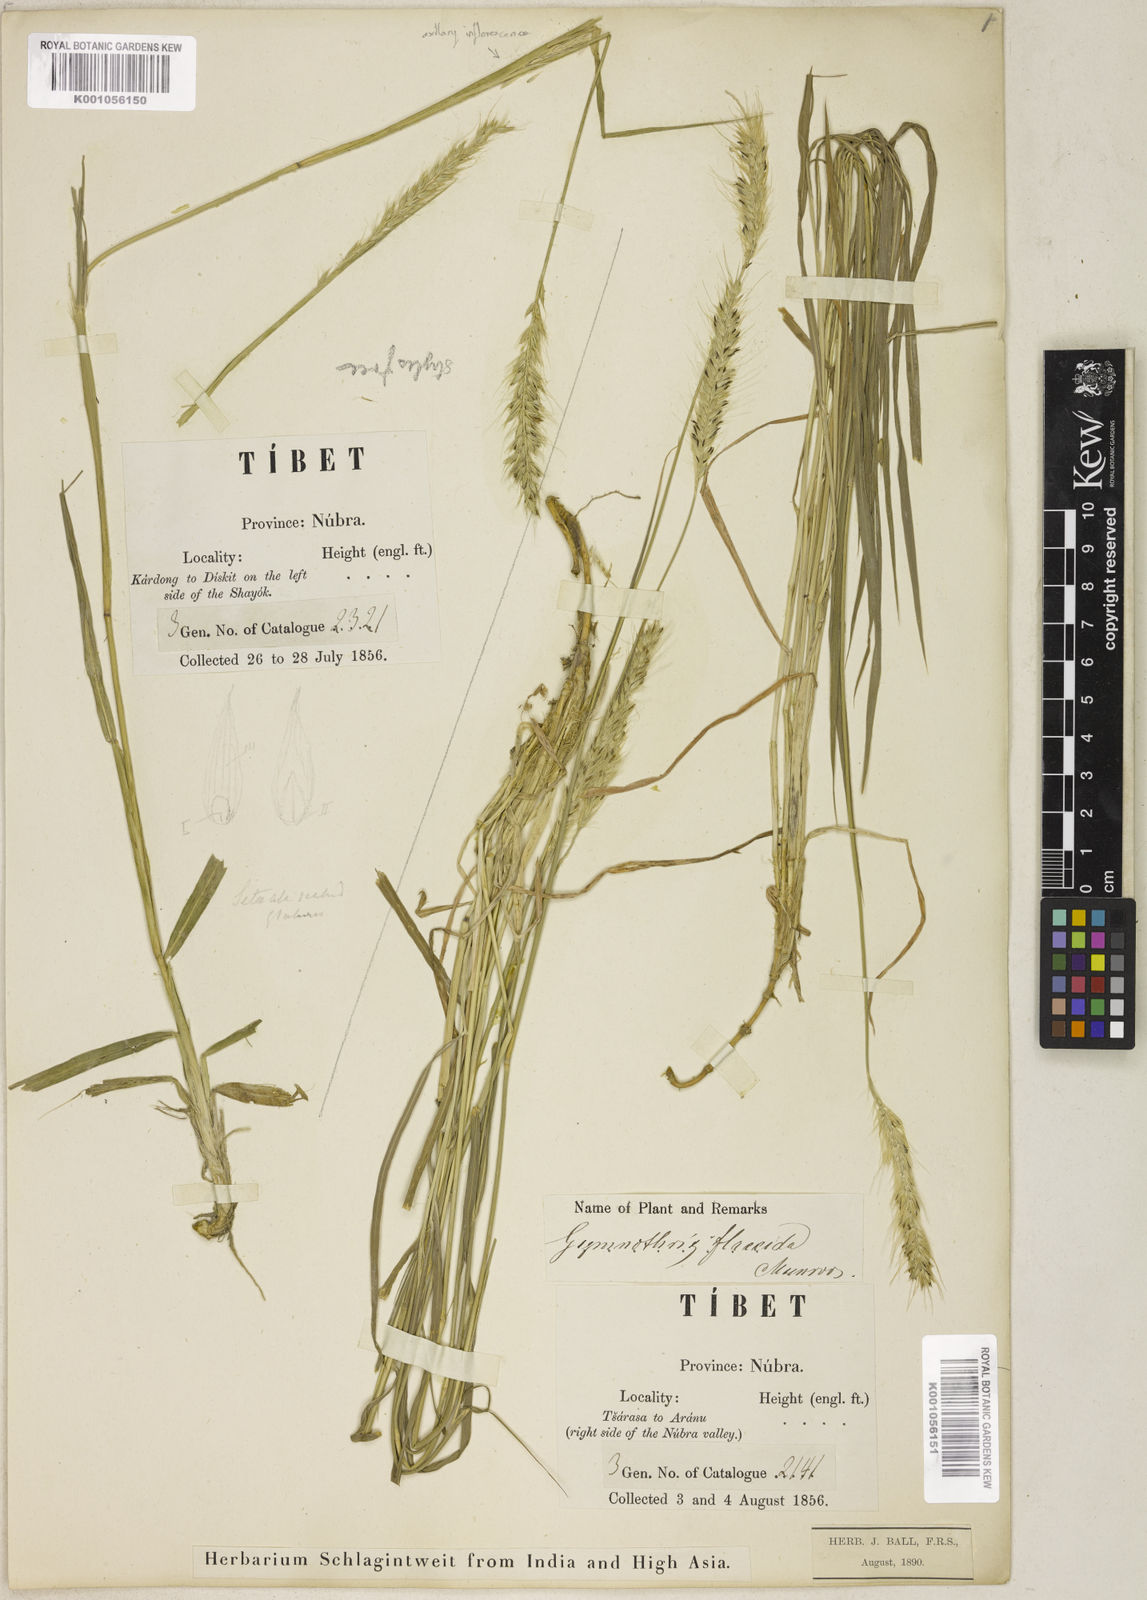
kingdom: Plantae
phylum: Tracheophyta
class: Liliopsida
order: Poales
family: Poaceae
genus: Cenchrus
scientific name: Cenchrus flaccidus
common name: Flaccid grass
